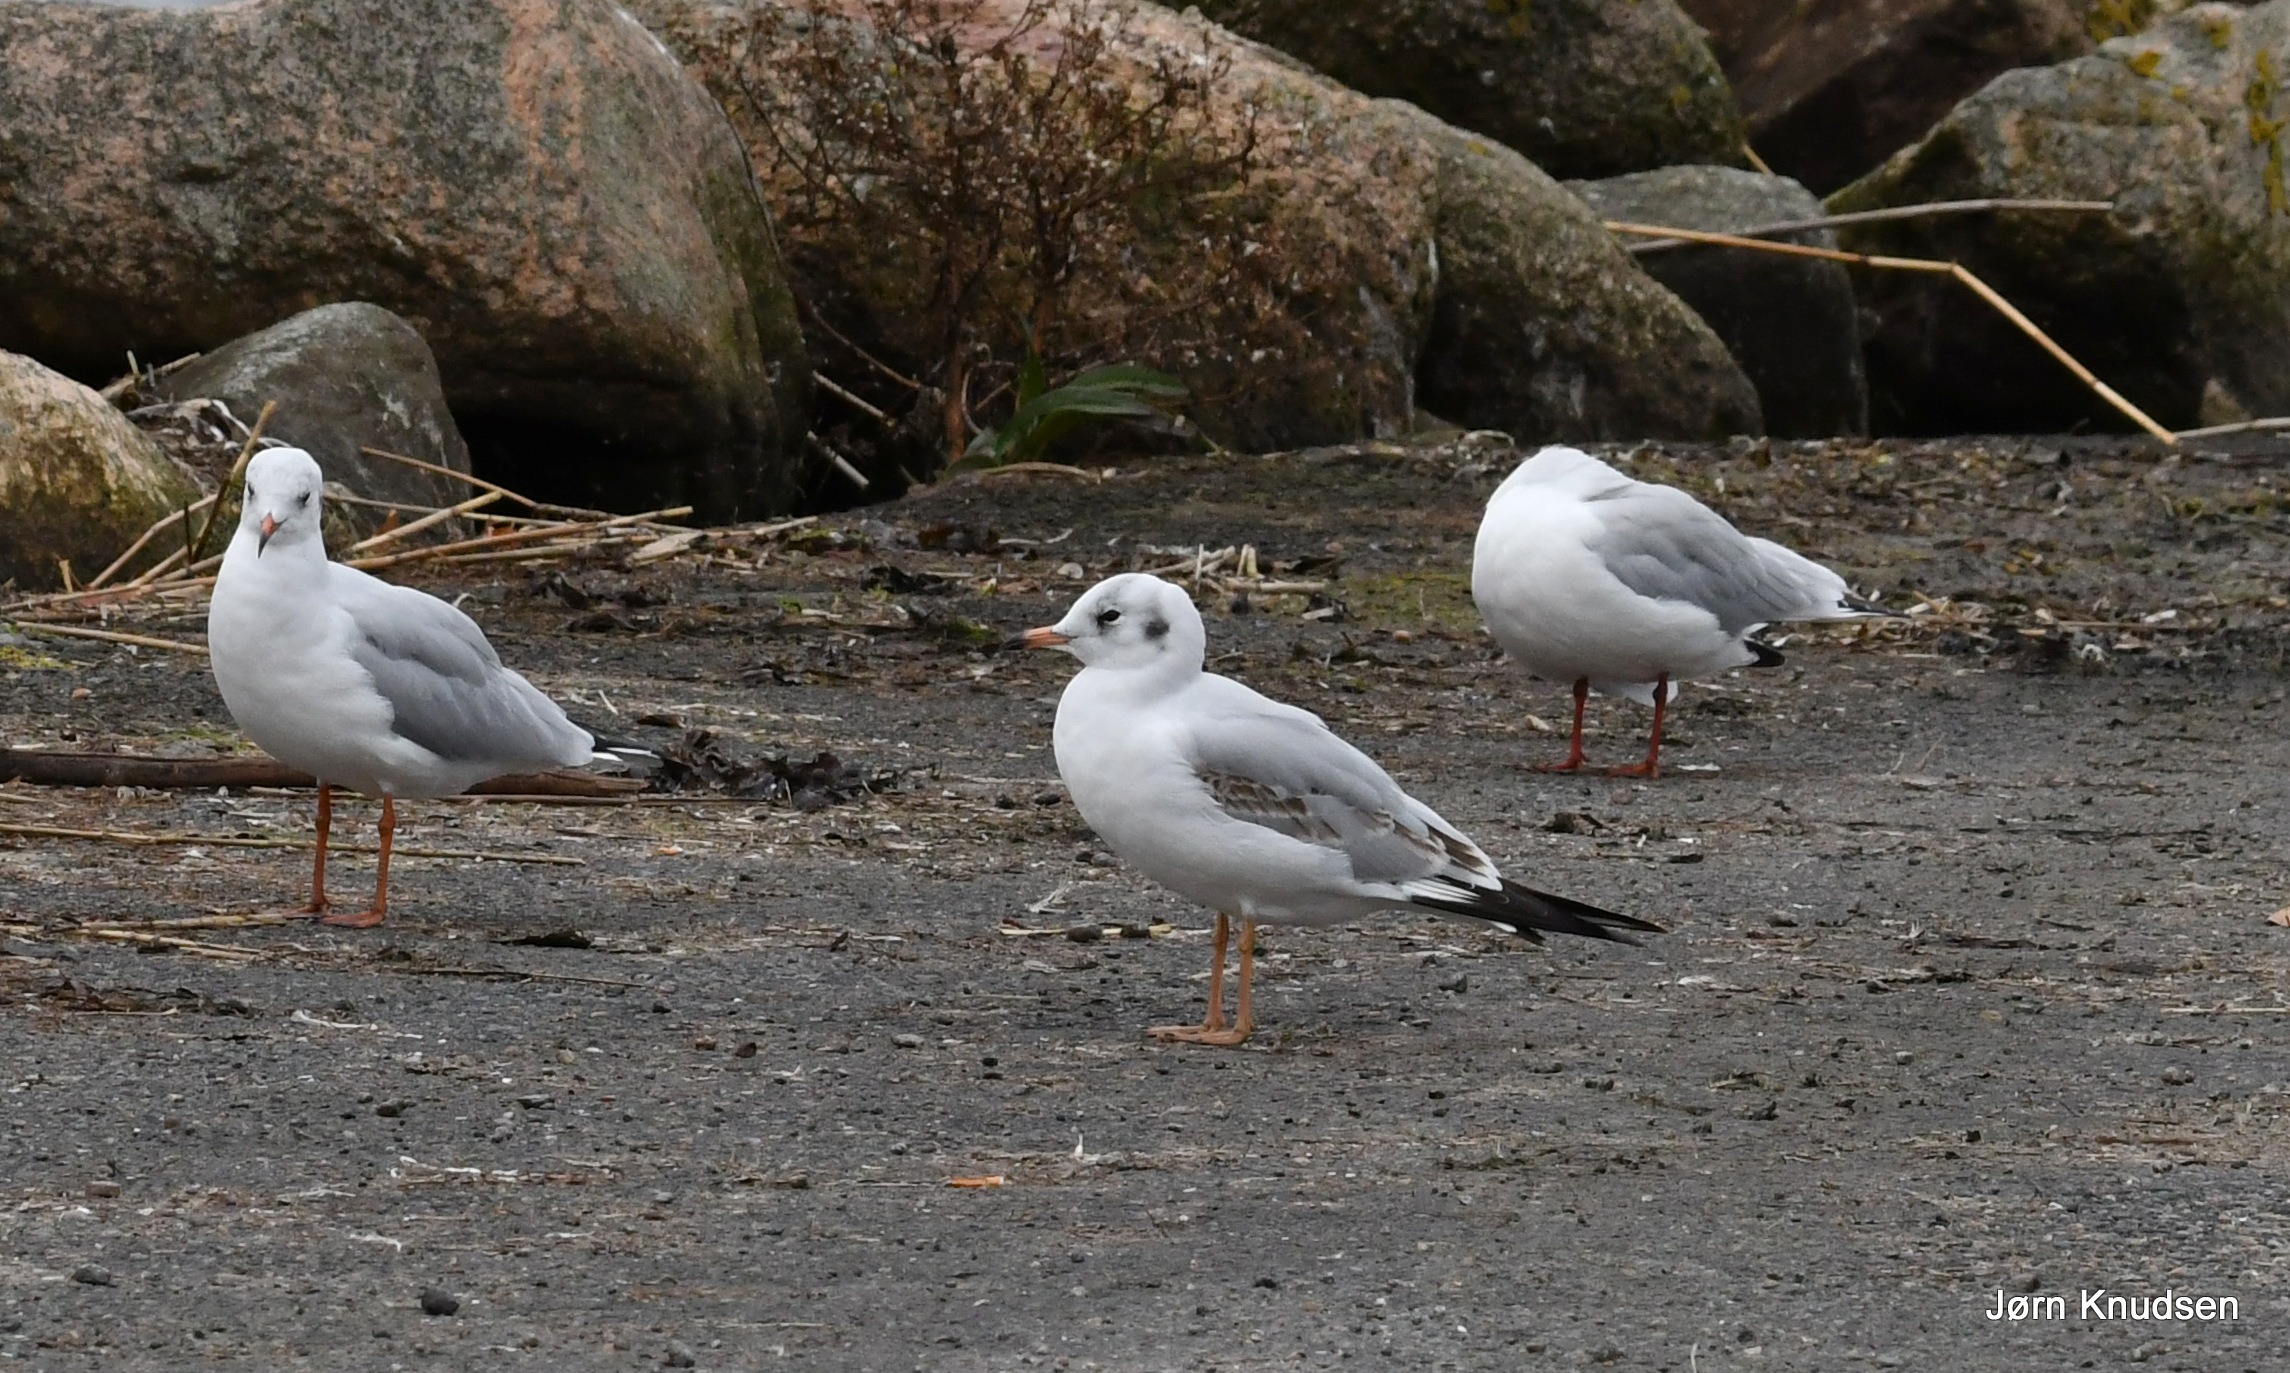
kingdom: Animalia
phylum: Chordata
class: Aves
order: Charadriiformes
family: Laridae
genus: Chroicocephalus
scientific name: Chroicocephalus ridibundus
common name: Hættemåge
